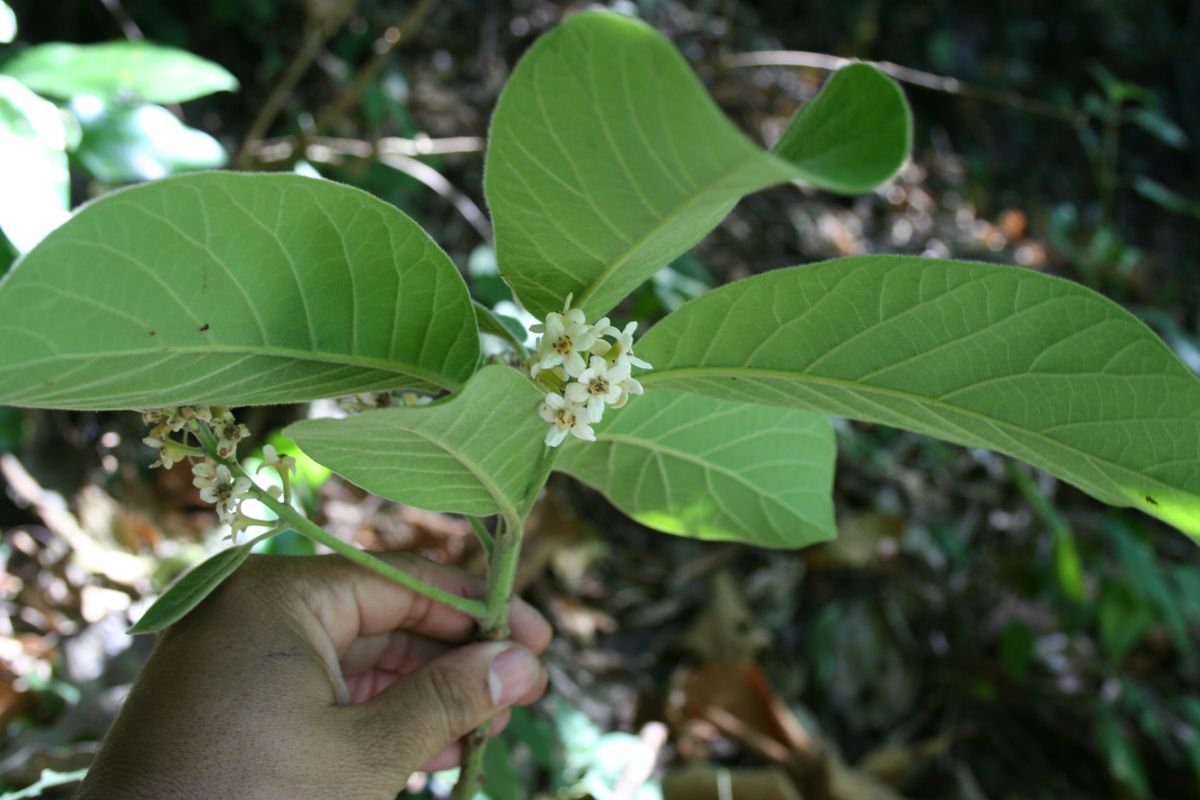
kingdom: Plantae
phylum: Tracheophyta
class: Magnoliopsida
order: Laurales
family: Lauraceae
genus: Ocotea
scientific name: Ocotea sinuata
